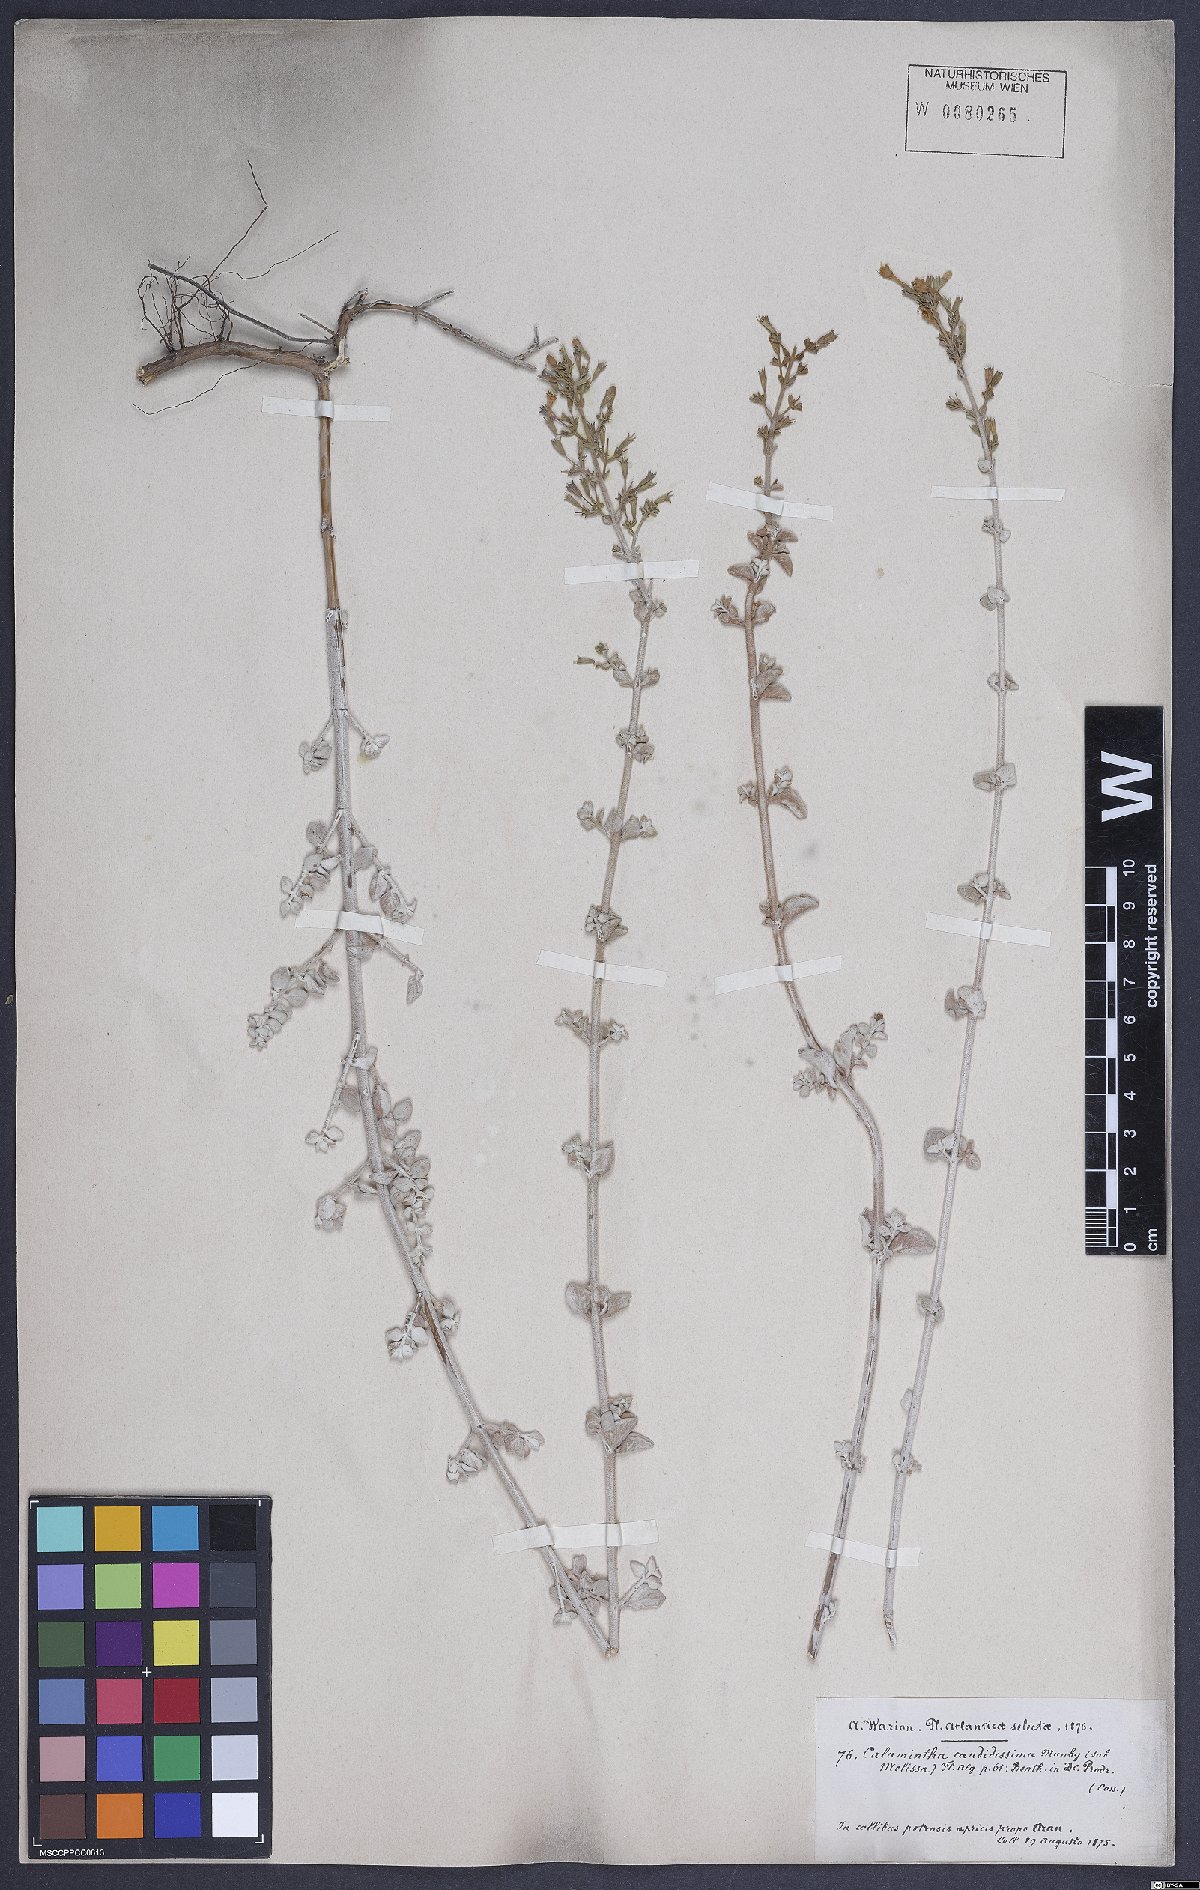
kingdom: Plantae
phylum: Tracheophyta
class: Magnoliopsida
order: Lamiales
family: Lamiaceae
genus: Calamintha
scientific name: Calamintha
